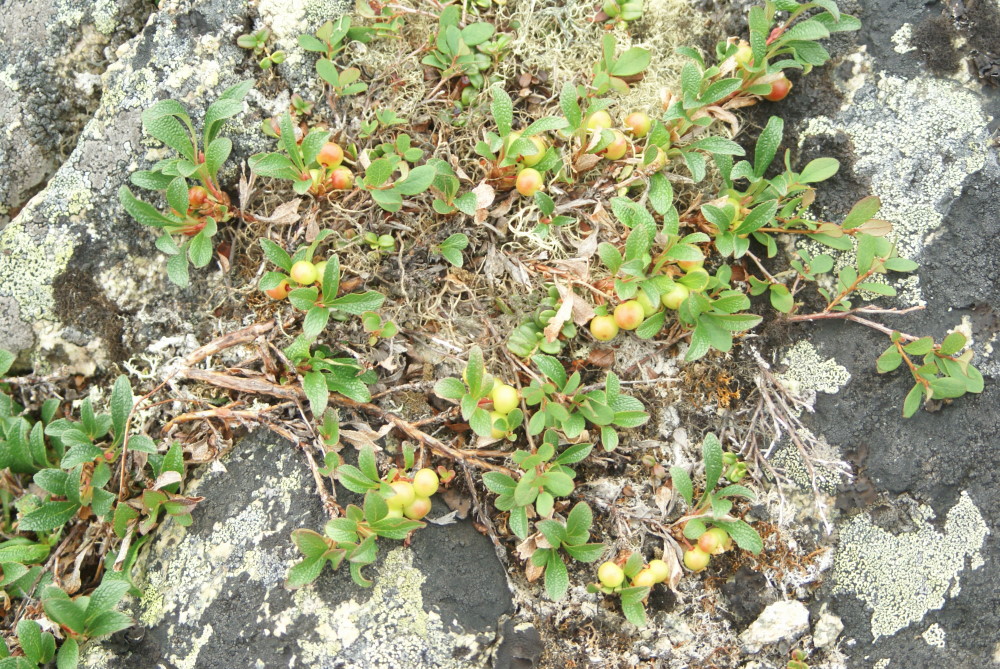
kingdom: Plantae
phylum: Tracheophyta
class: Magnoliopsida
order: Ericales
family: Ericaceae
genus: Arctostaphylos
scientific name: Arctostaphylos alpinus
